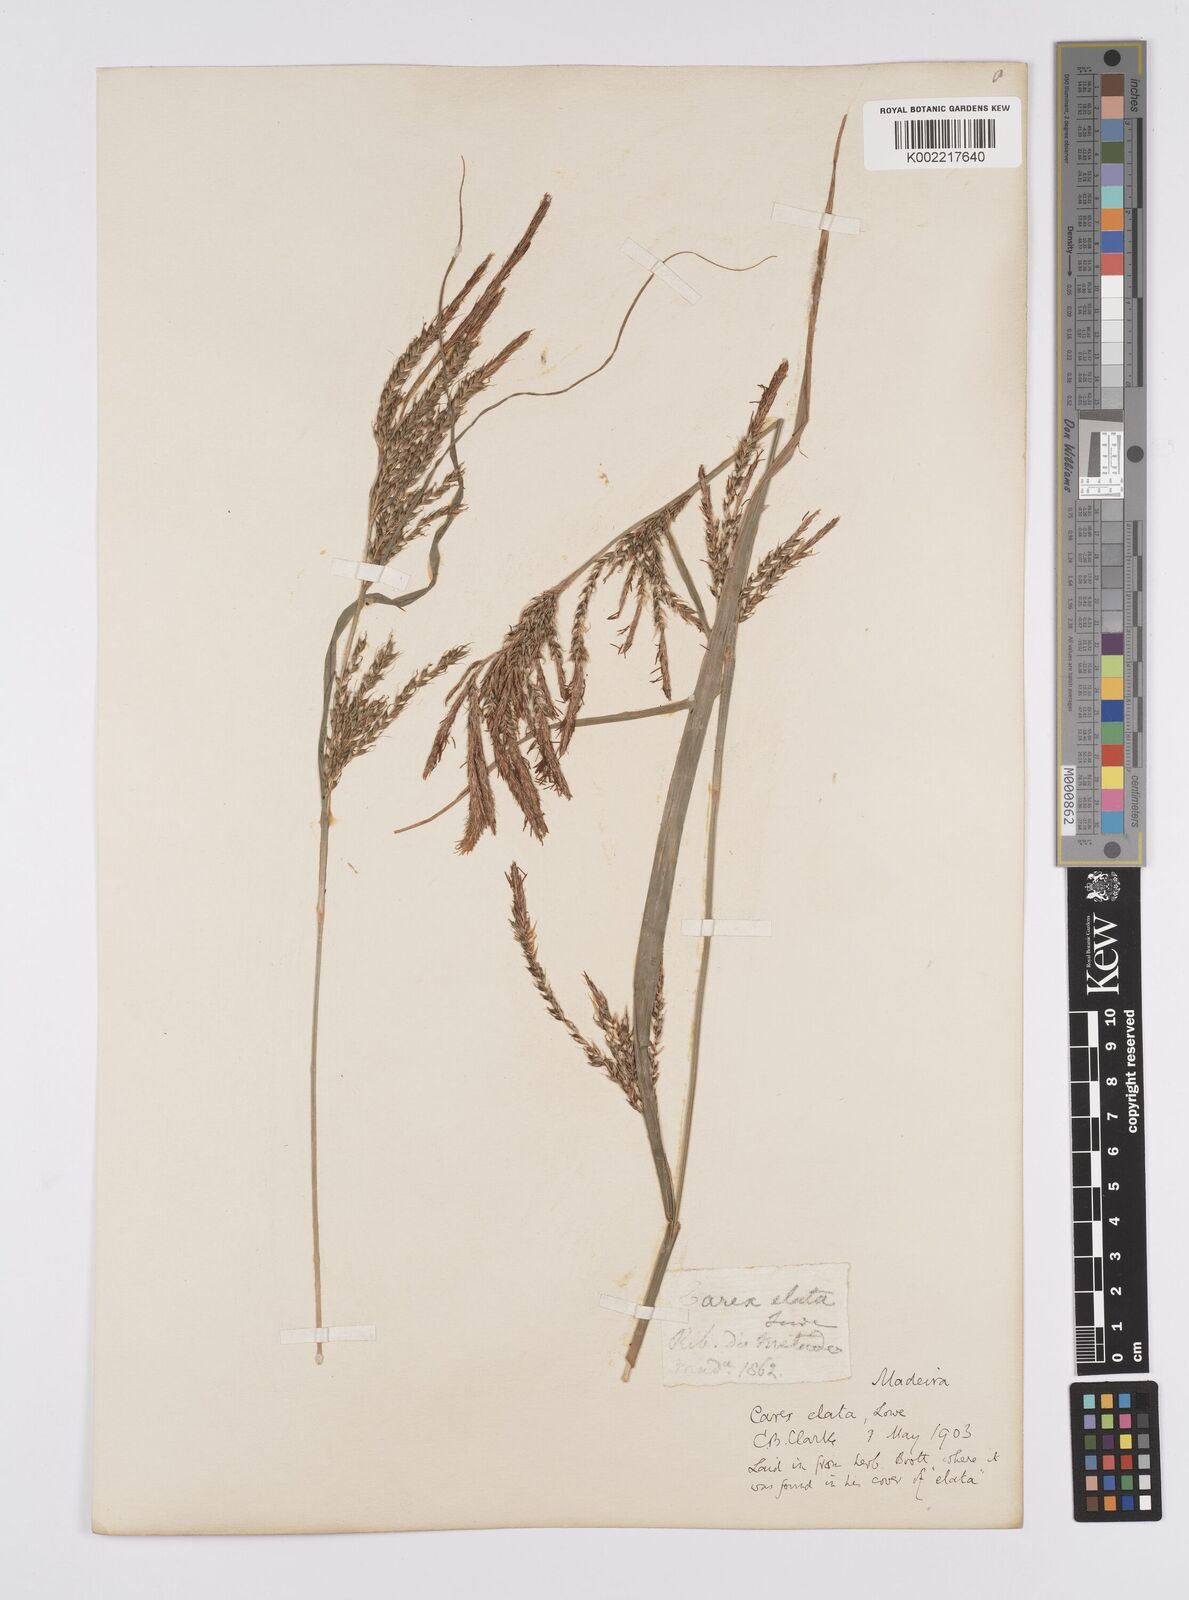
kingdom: Plantae
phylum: Tracheophyta
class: Liliopsida
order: Poales
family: Cyperaceae
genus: Carex
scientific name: Carex lowei
